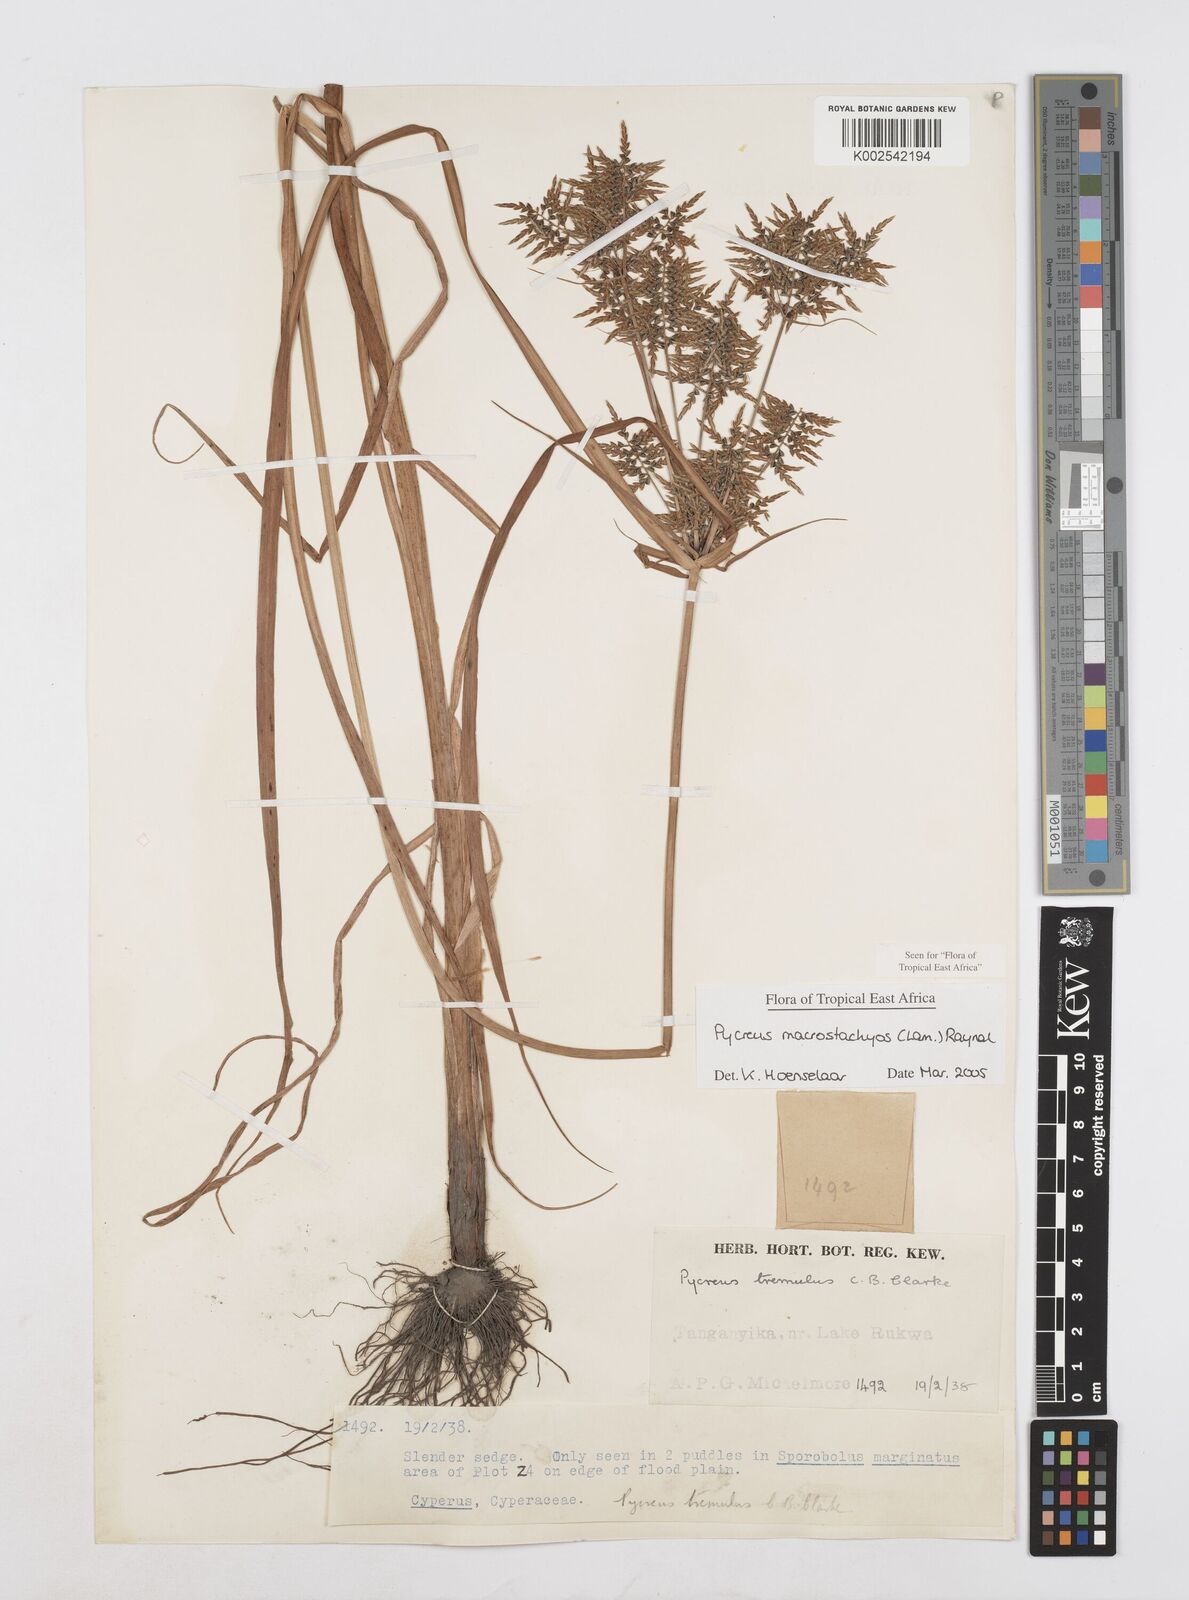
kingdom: Plantae
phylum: Tracheophyta
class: Liliopsida
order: Poales
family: Cyperaceae
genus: Cyperus
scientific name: Cyperus macrostachyos
